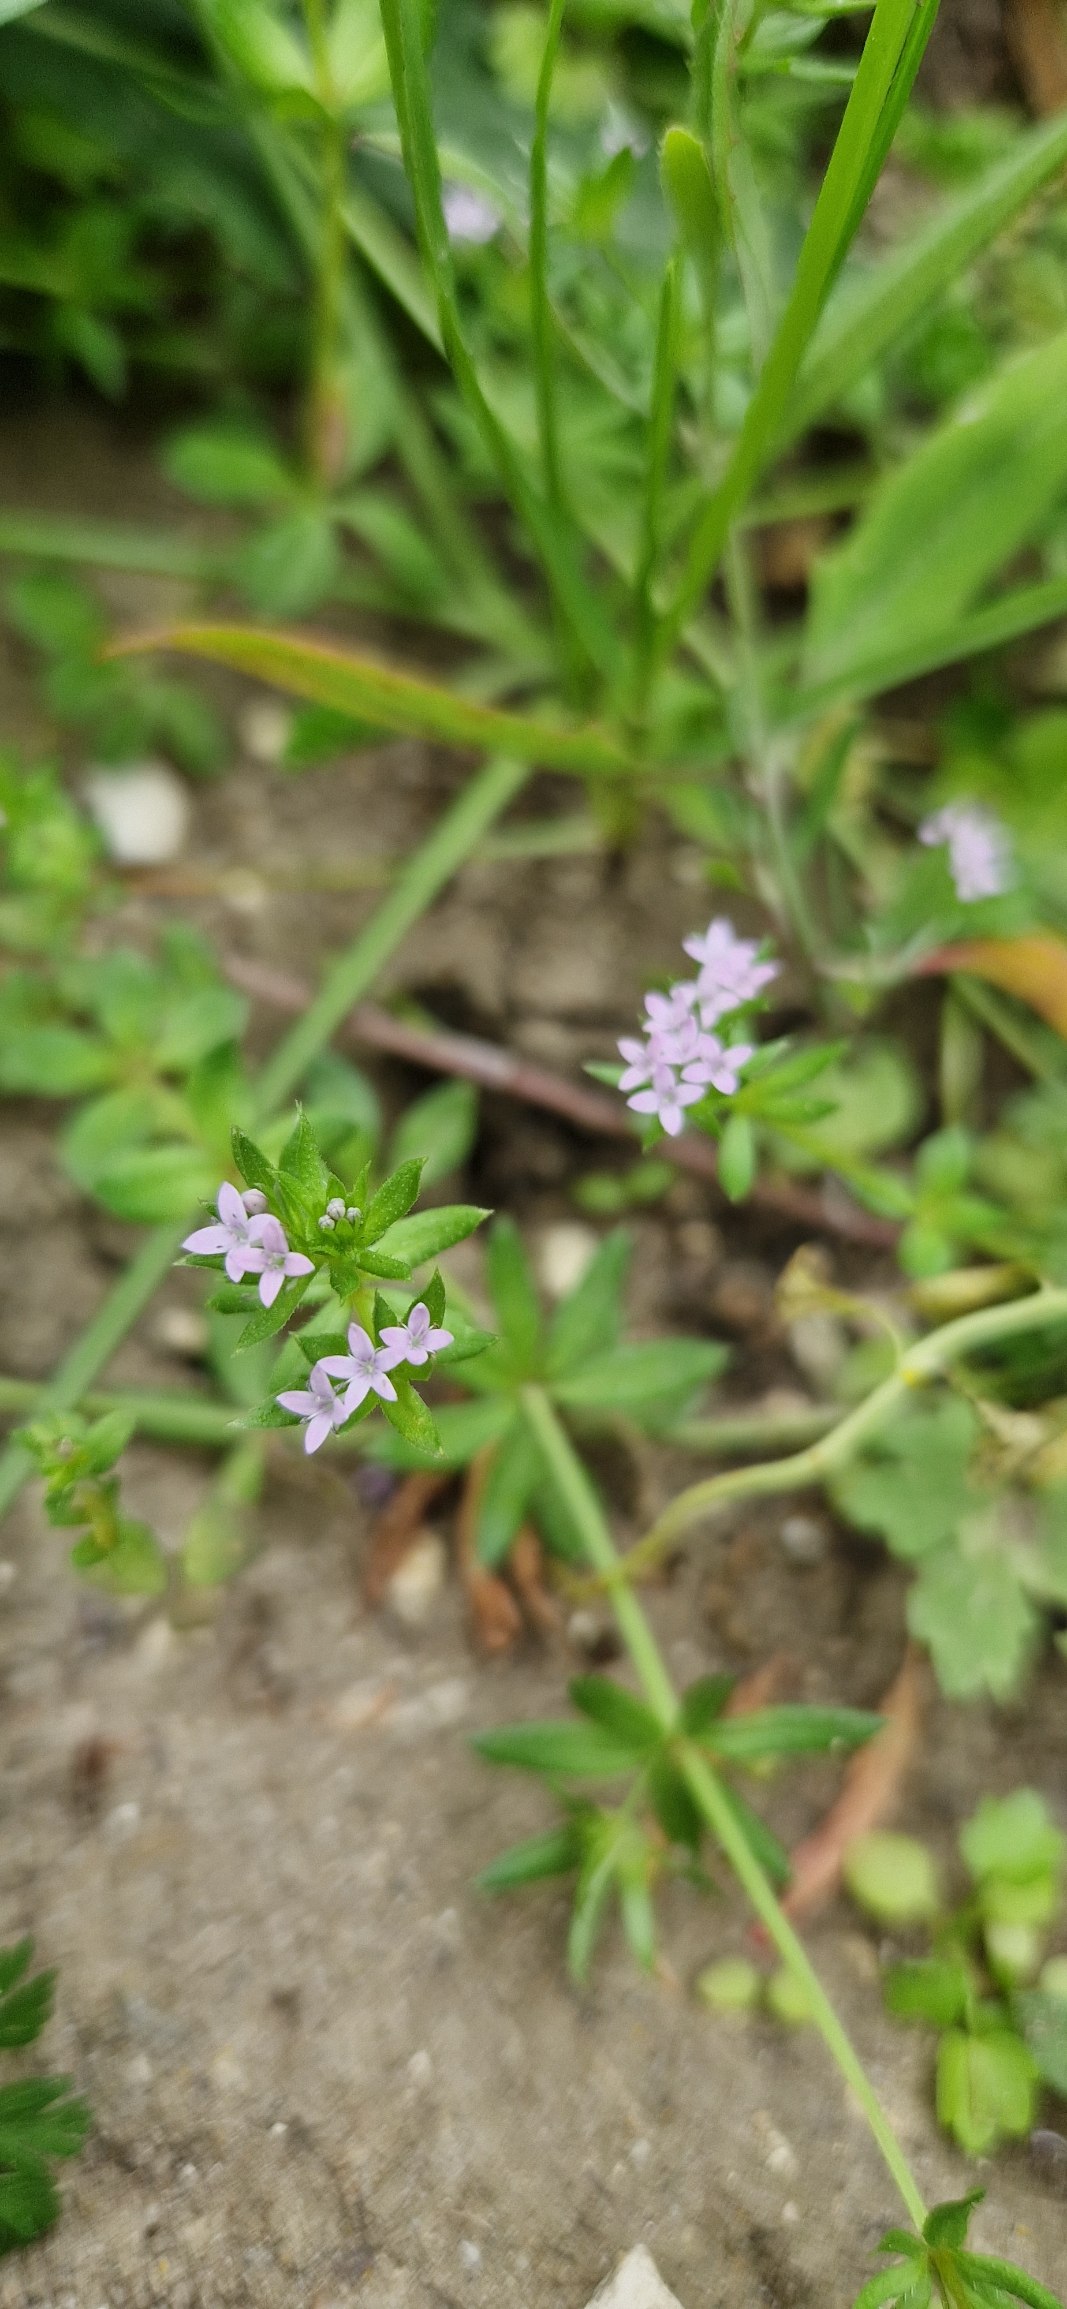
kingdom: Plantae
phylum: Tracheophyta
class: Magnoliopsida
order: Gentianales
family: Rubiaceae
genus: Sherardia
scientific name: Sherardia arvensis
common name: Blåstjerne
